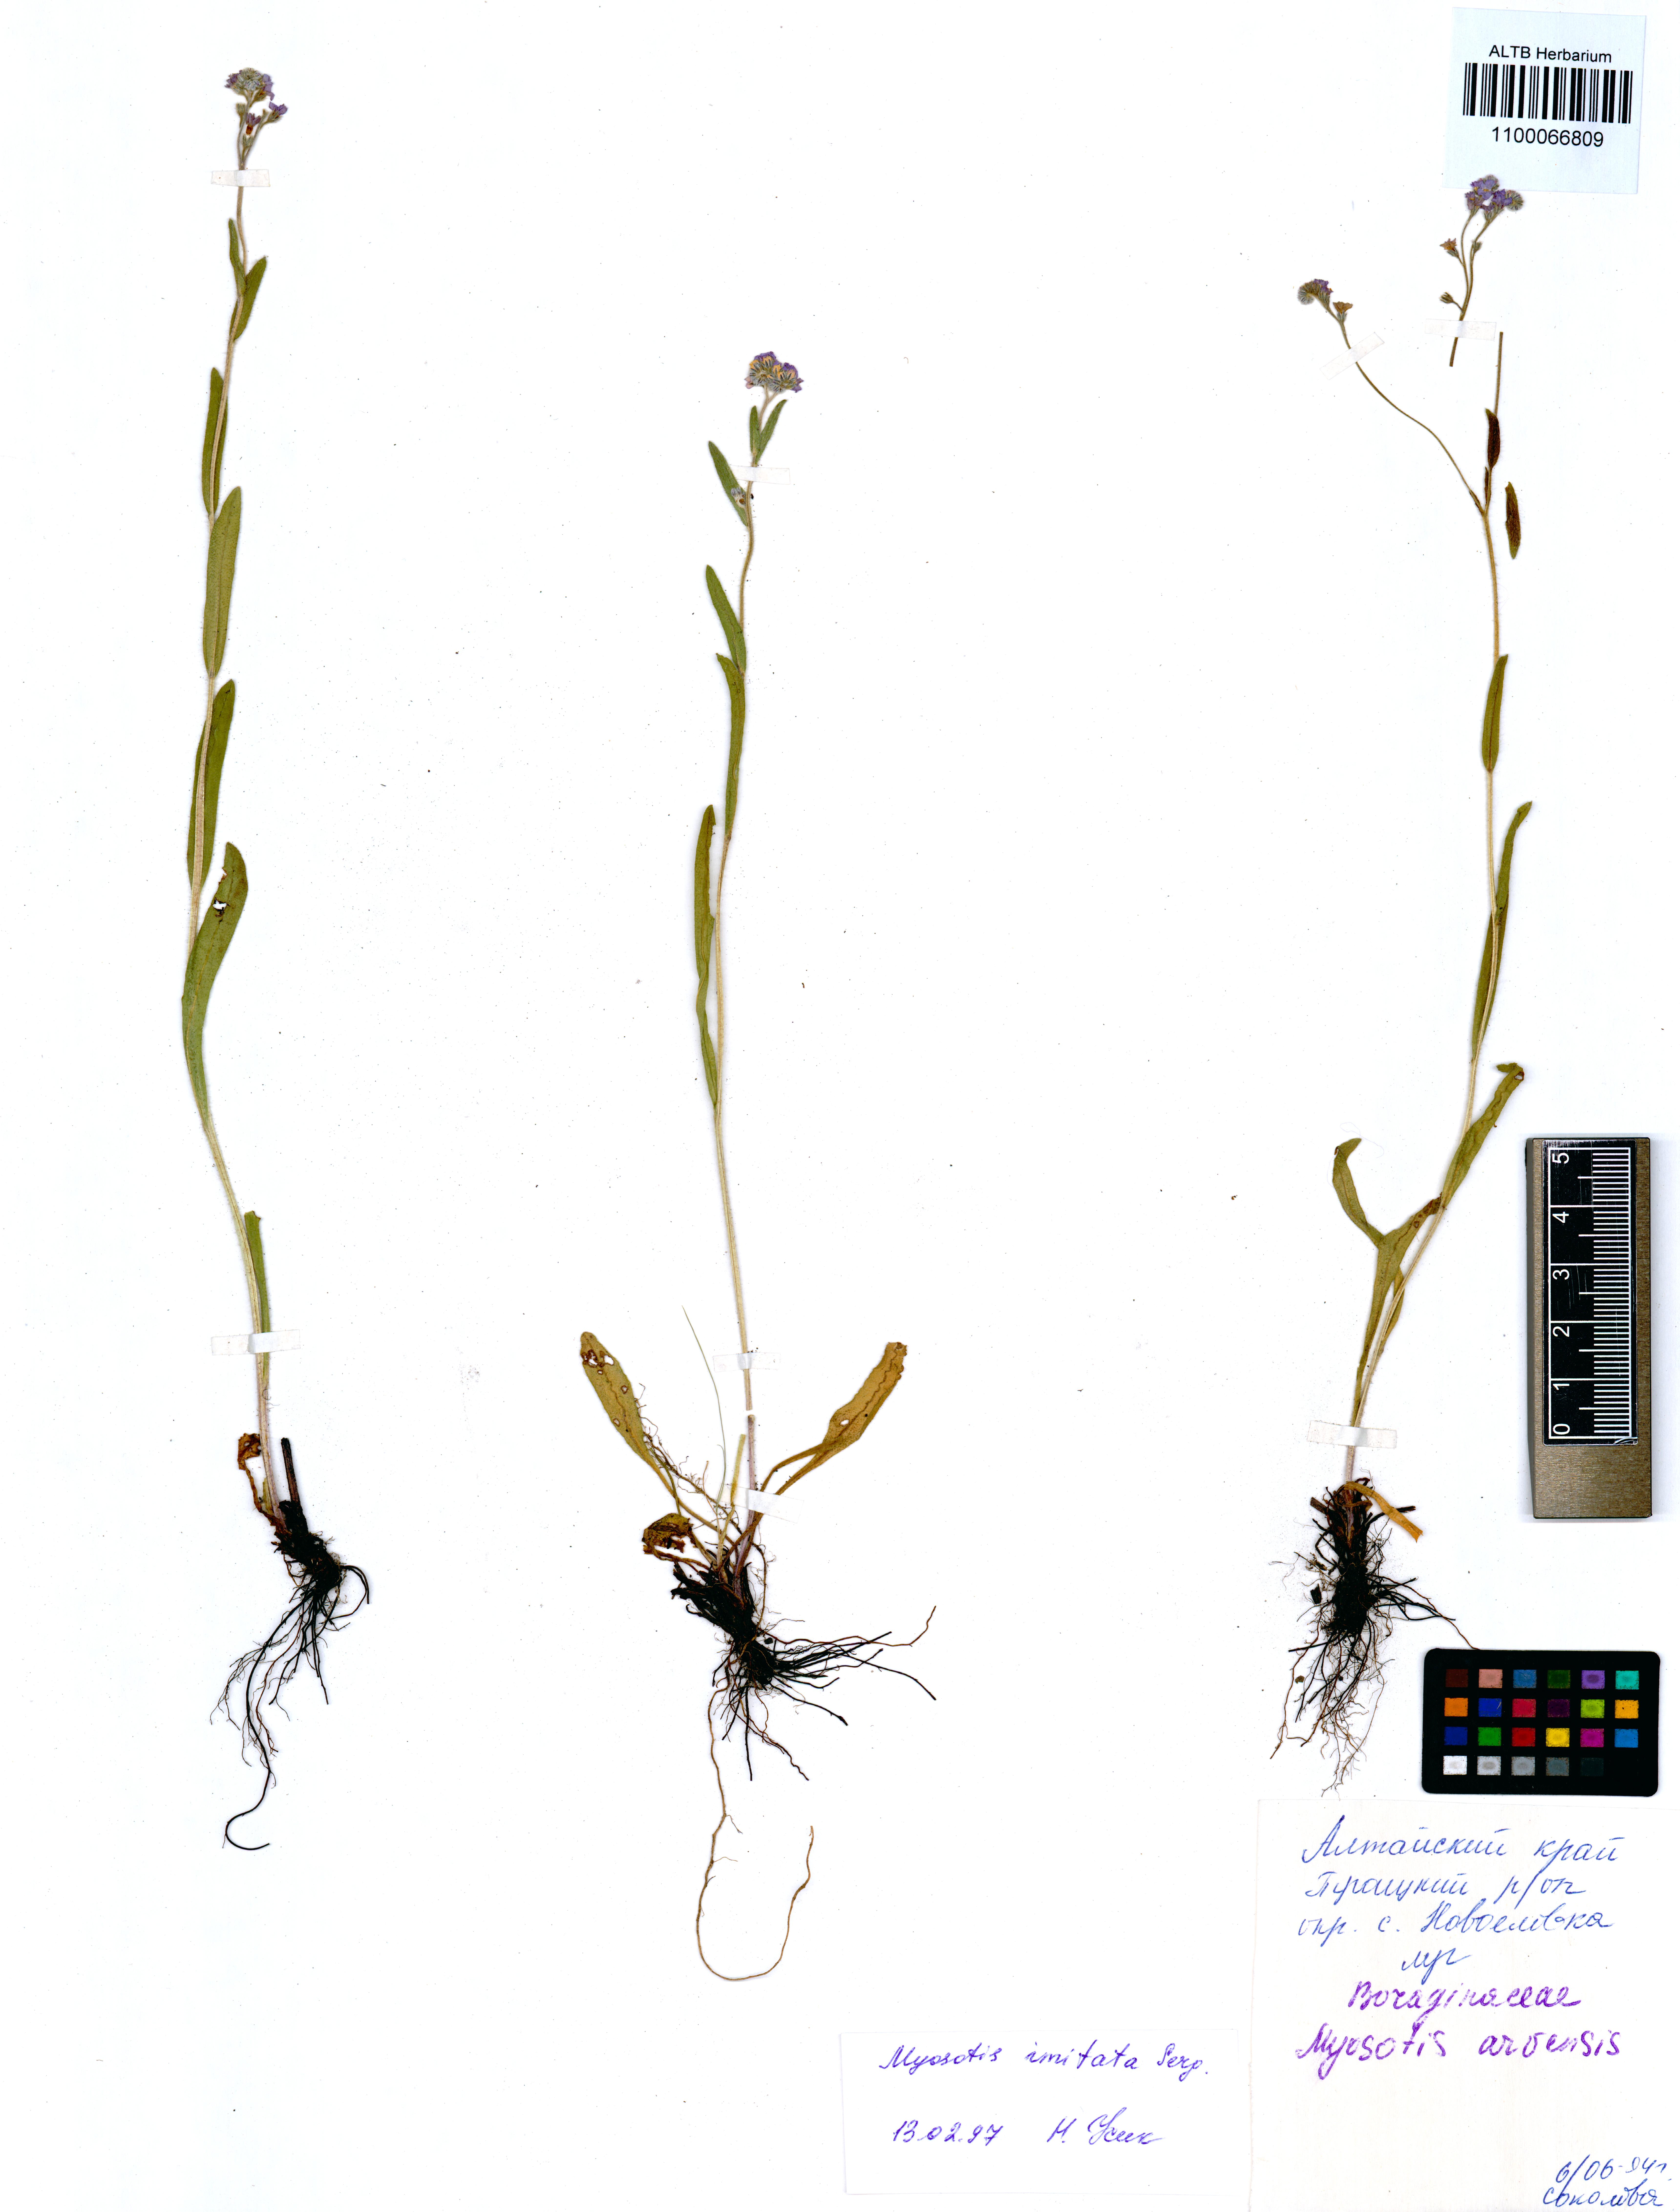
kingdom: Plantae
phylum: Tracheophyta
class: Magnoliopsida
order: Boraginales
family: Boraginaceae
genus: Myosotis
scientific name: Myosotis imitata
